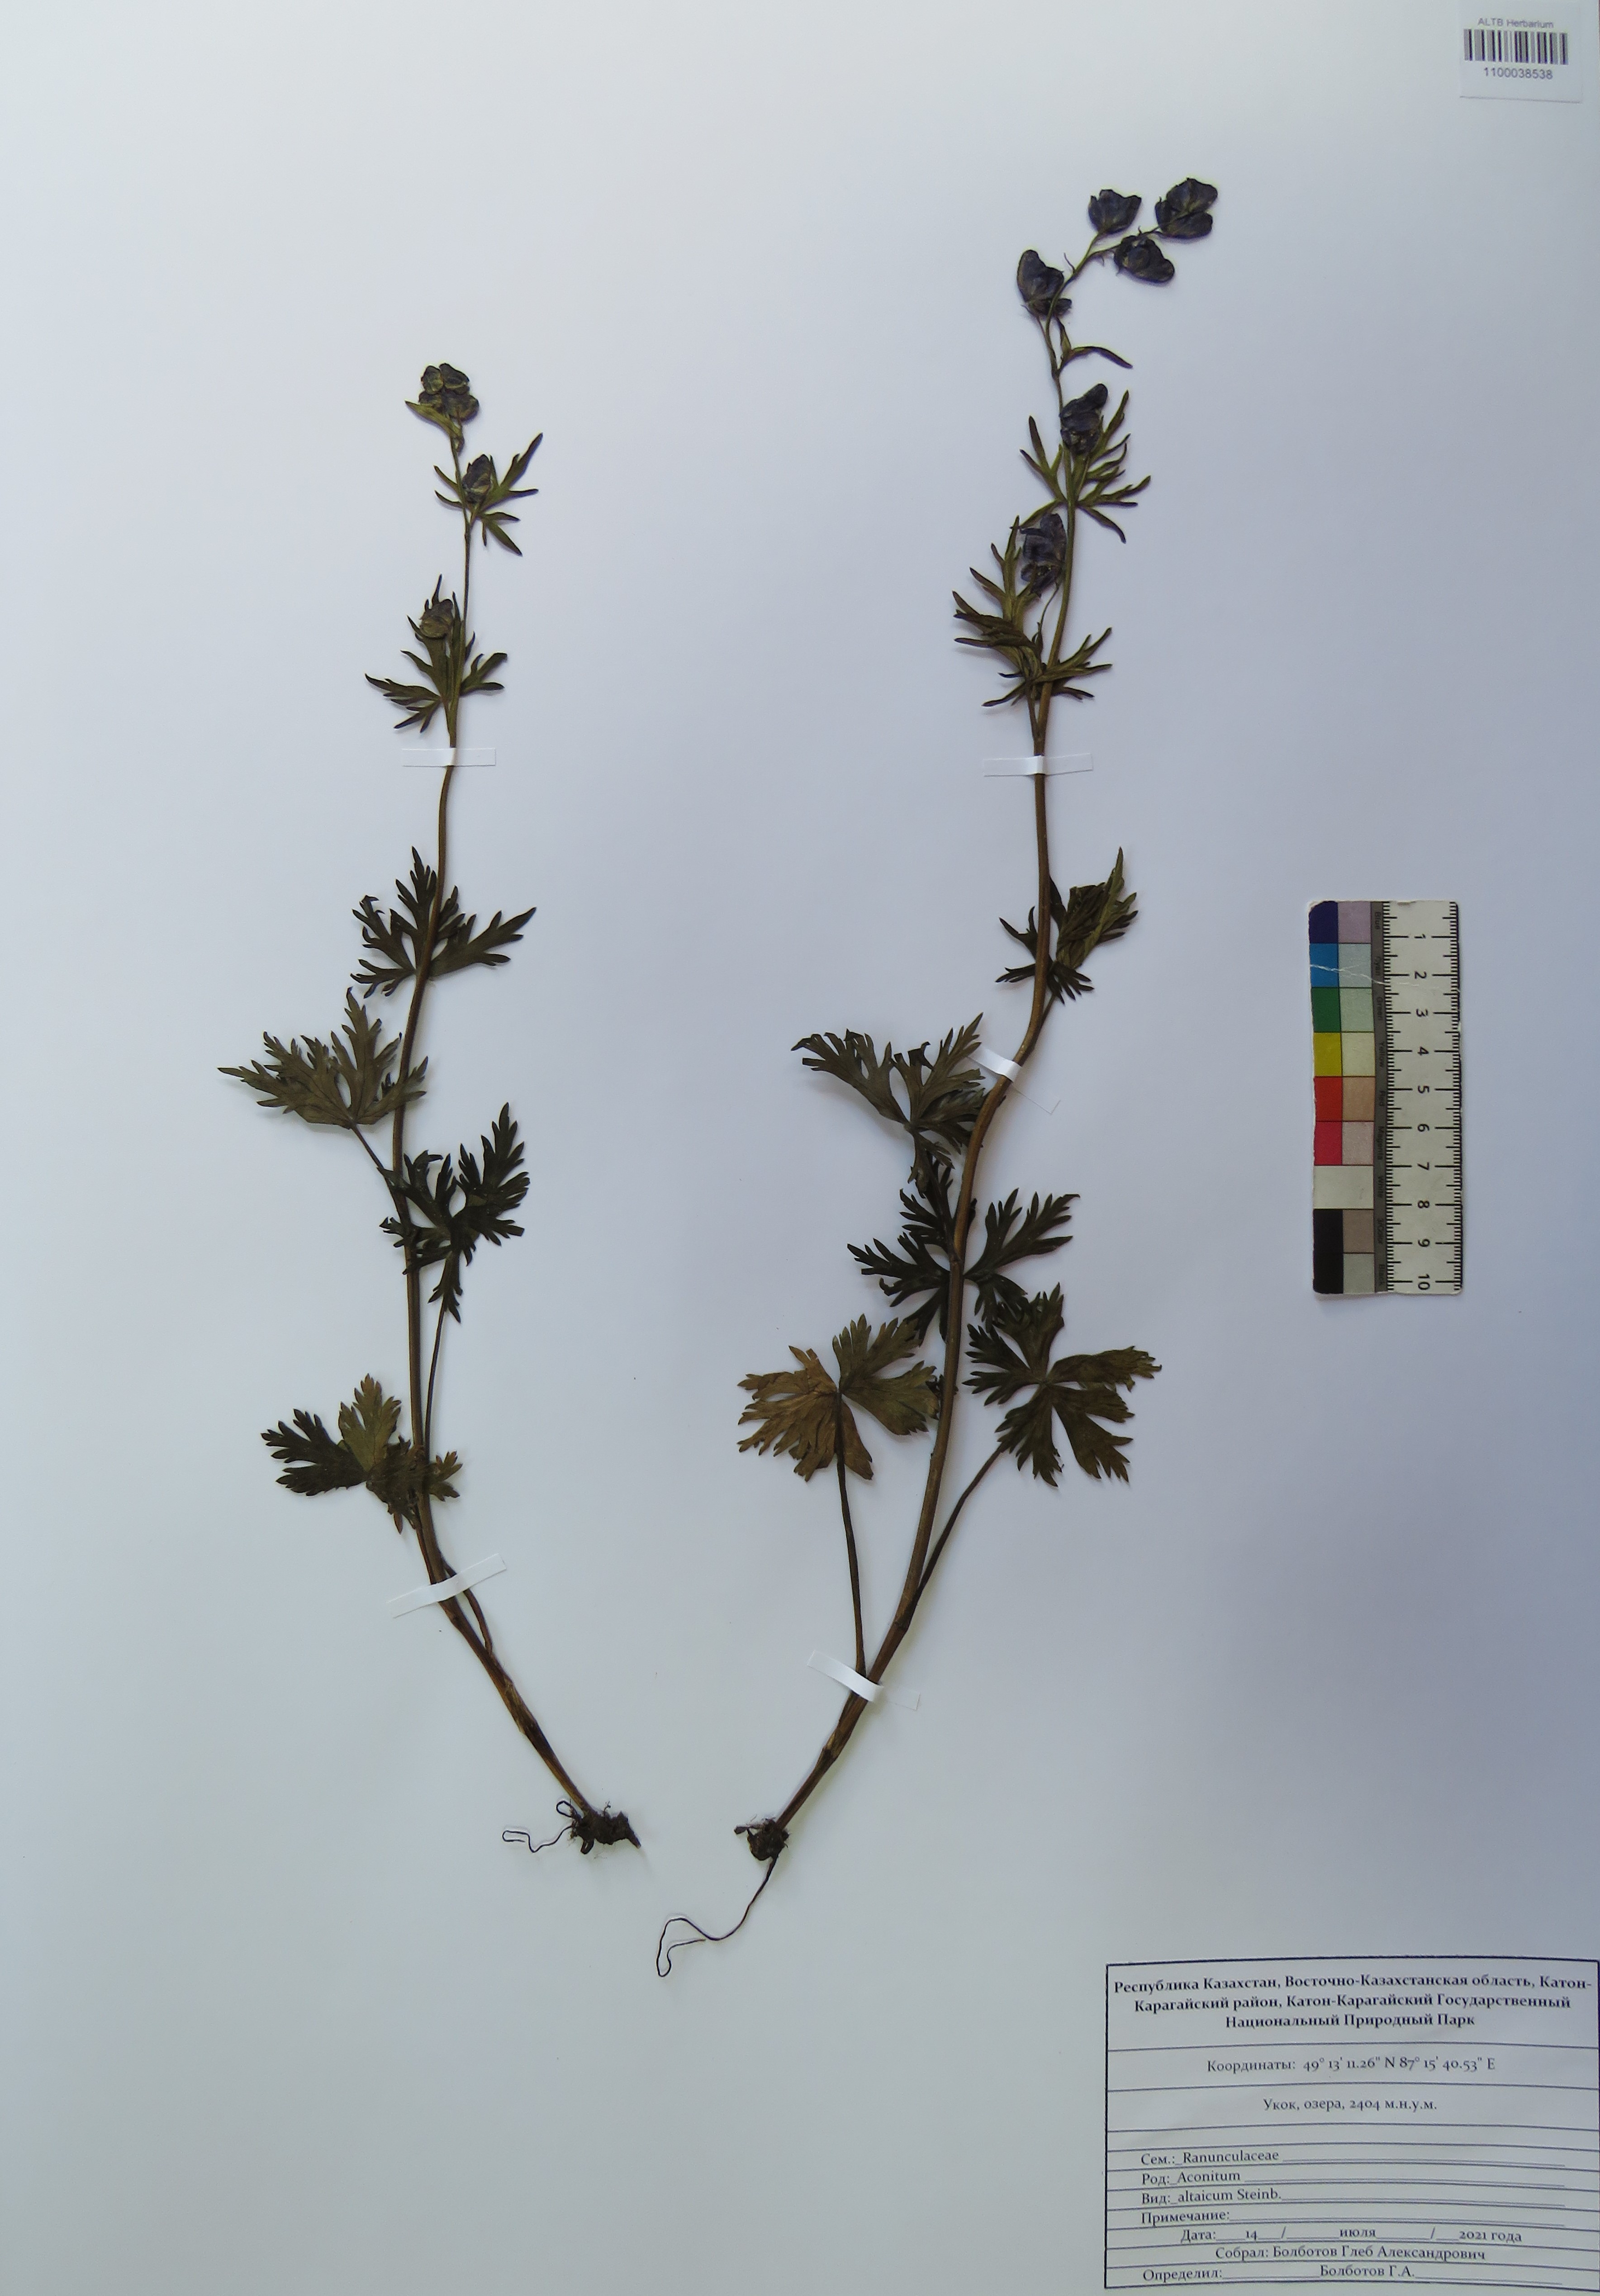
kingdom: Plantae
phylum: Tracheophyta
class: Magnoliopsida
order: Ranunculales
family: Ranunculaceae
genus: Aconitum
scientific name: Aconitum glandulosum
